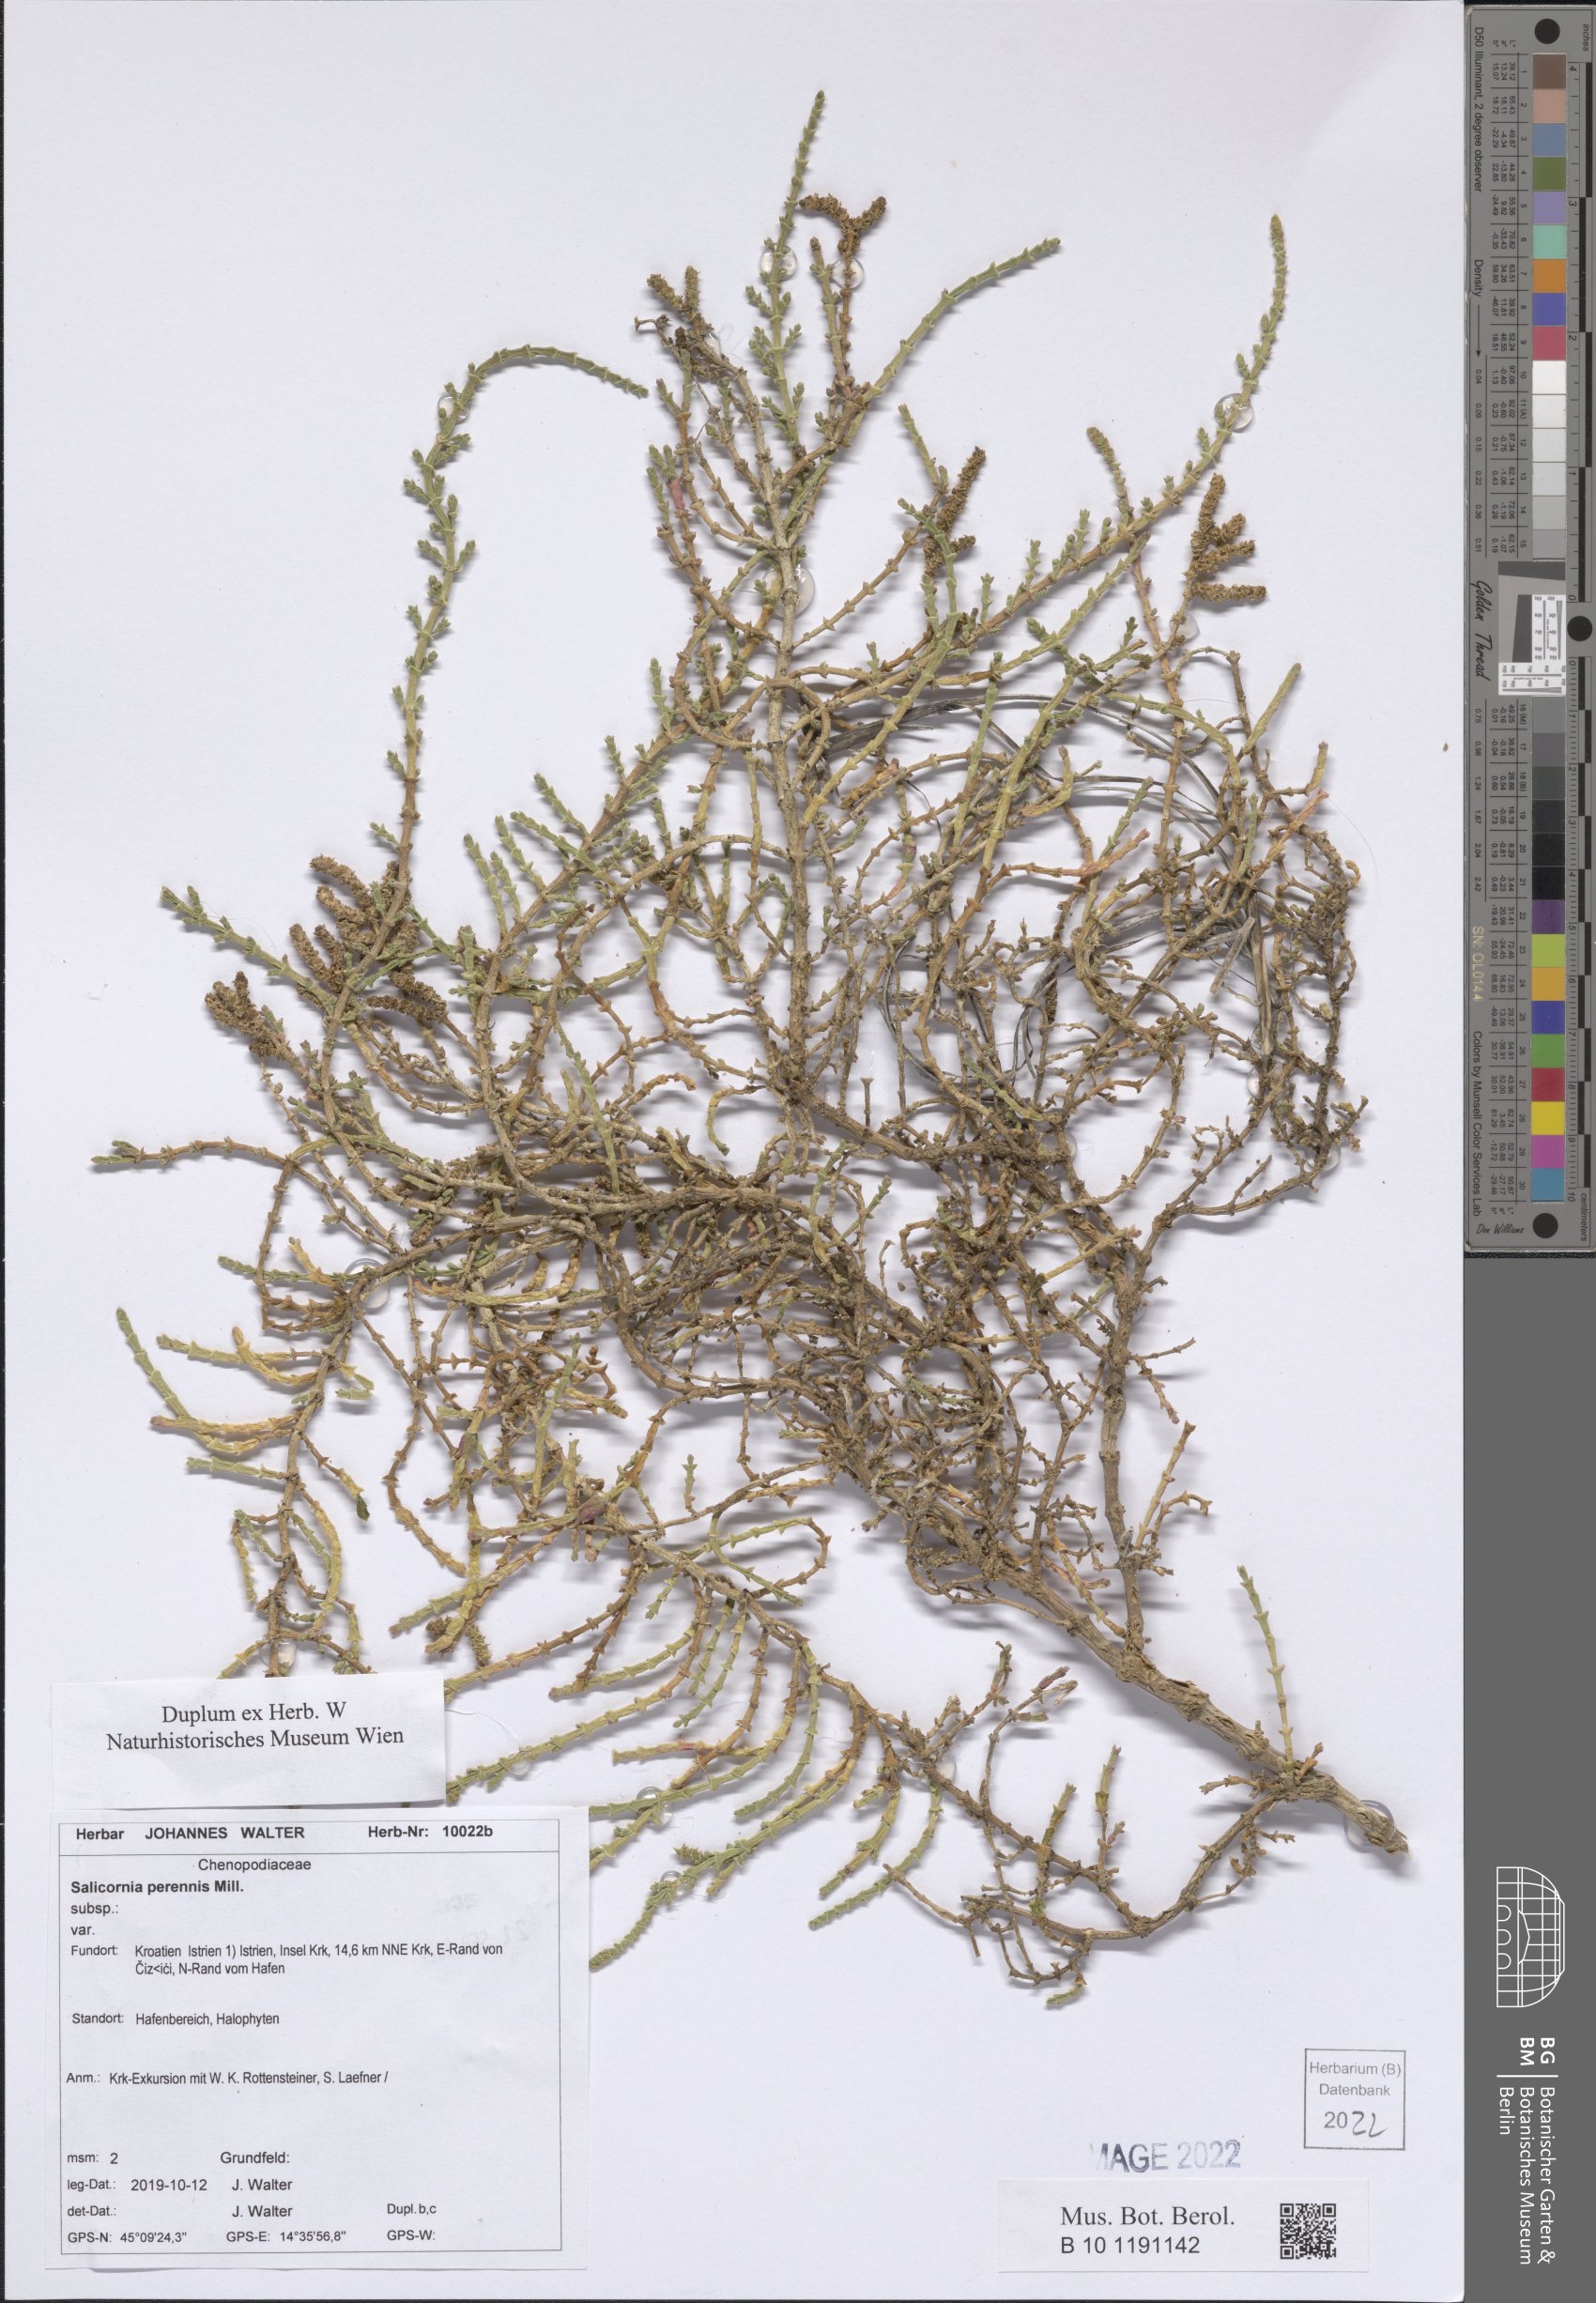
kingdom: Plantae
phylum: Tracheophyta
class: Magnoliopsida
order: Caryophyllales
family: Amaranthaceae
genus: Salicornia
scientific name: Salicornia perennis
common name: Chicken claws
